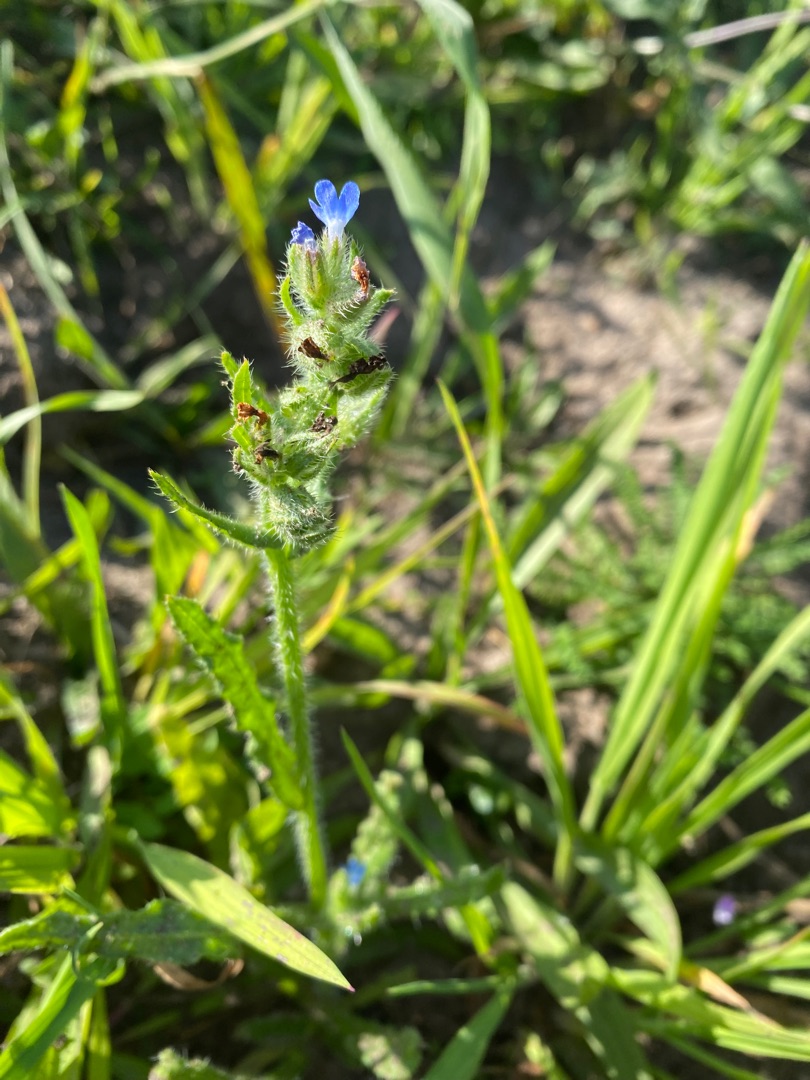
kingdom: Plantae
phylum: Tracheophyta
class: Magnoliopsida
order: Boraginales
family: Boraginaceae
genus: Lycopsis
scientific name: Lycopsis arvensis
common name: Krumhals
